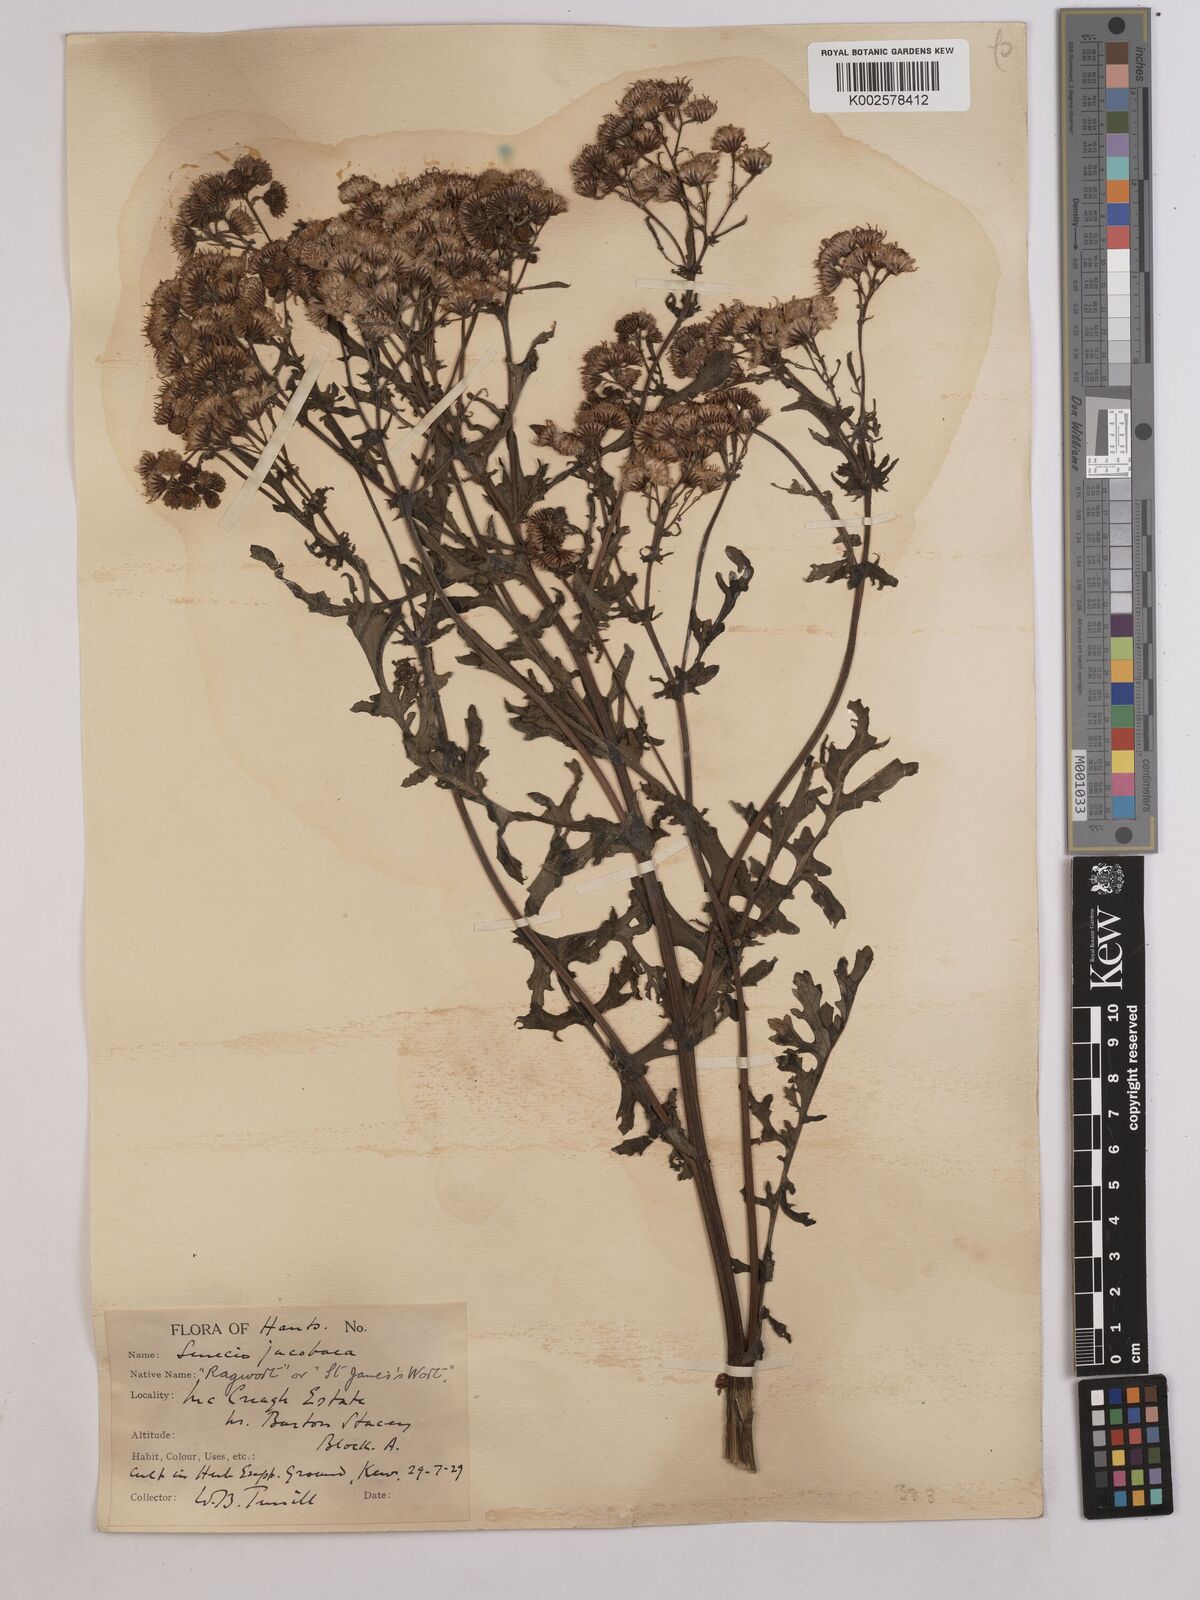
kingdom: Plantae
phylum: Tracheophyta
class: Magnoliopsida
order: Asterales
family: Asteraceae
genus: Jacobaea
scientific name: Jacobaea vulgaris
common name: Stinking willie
